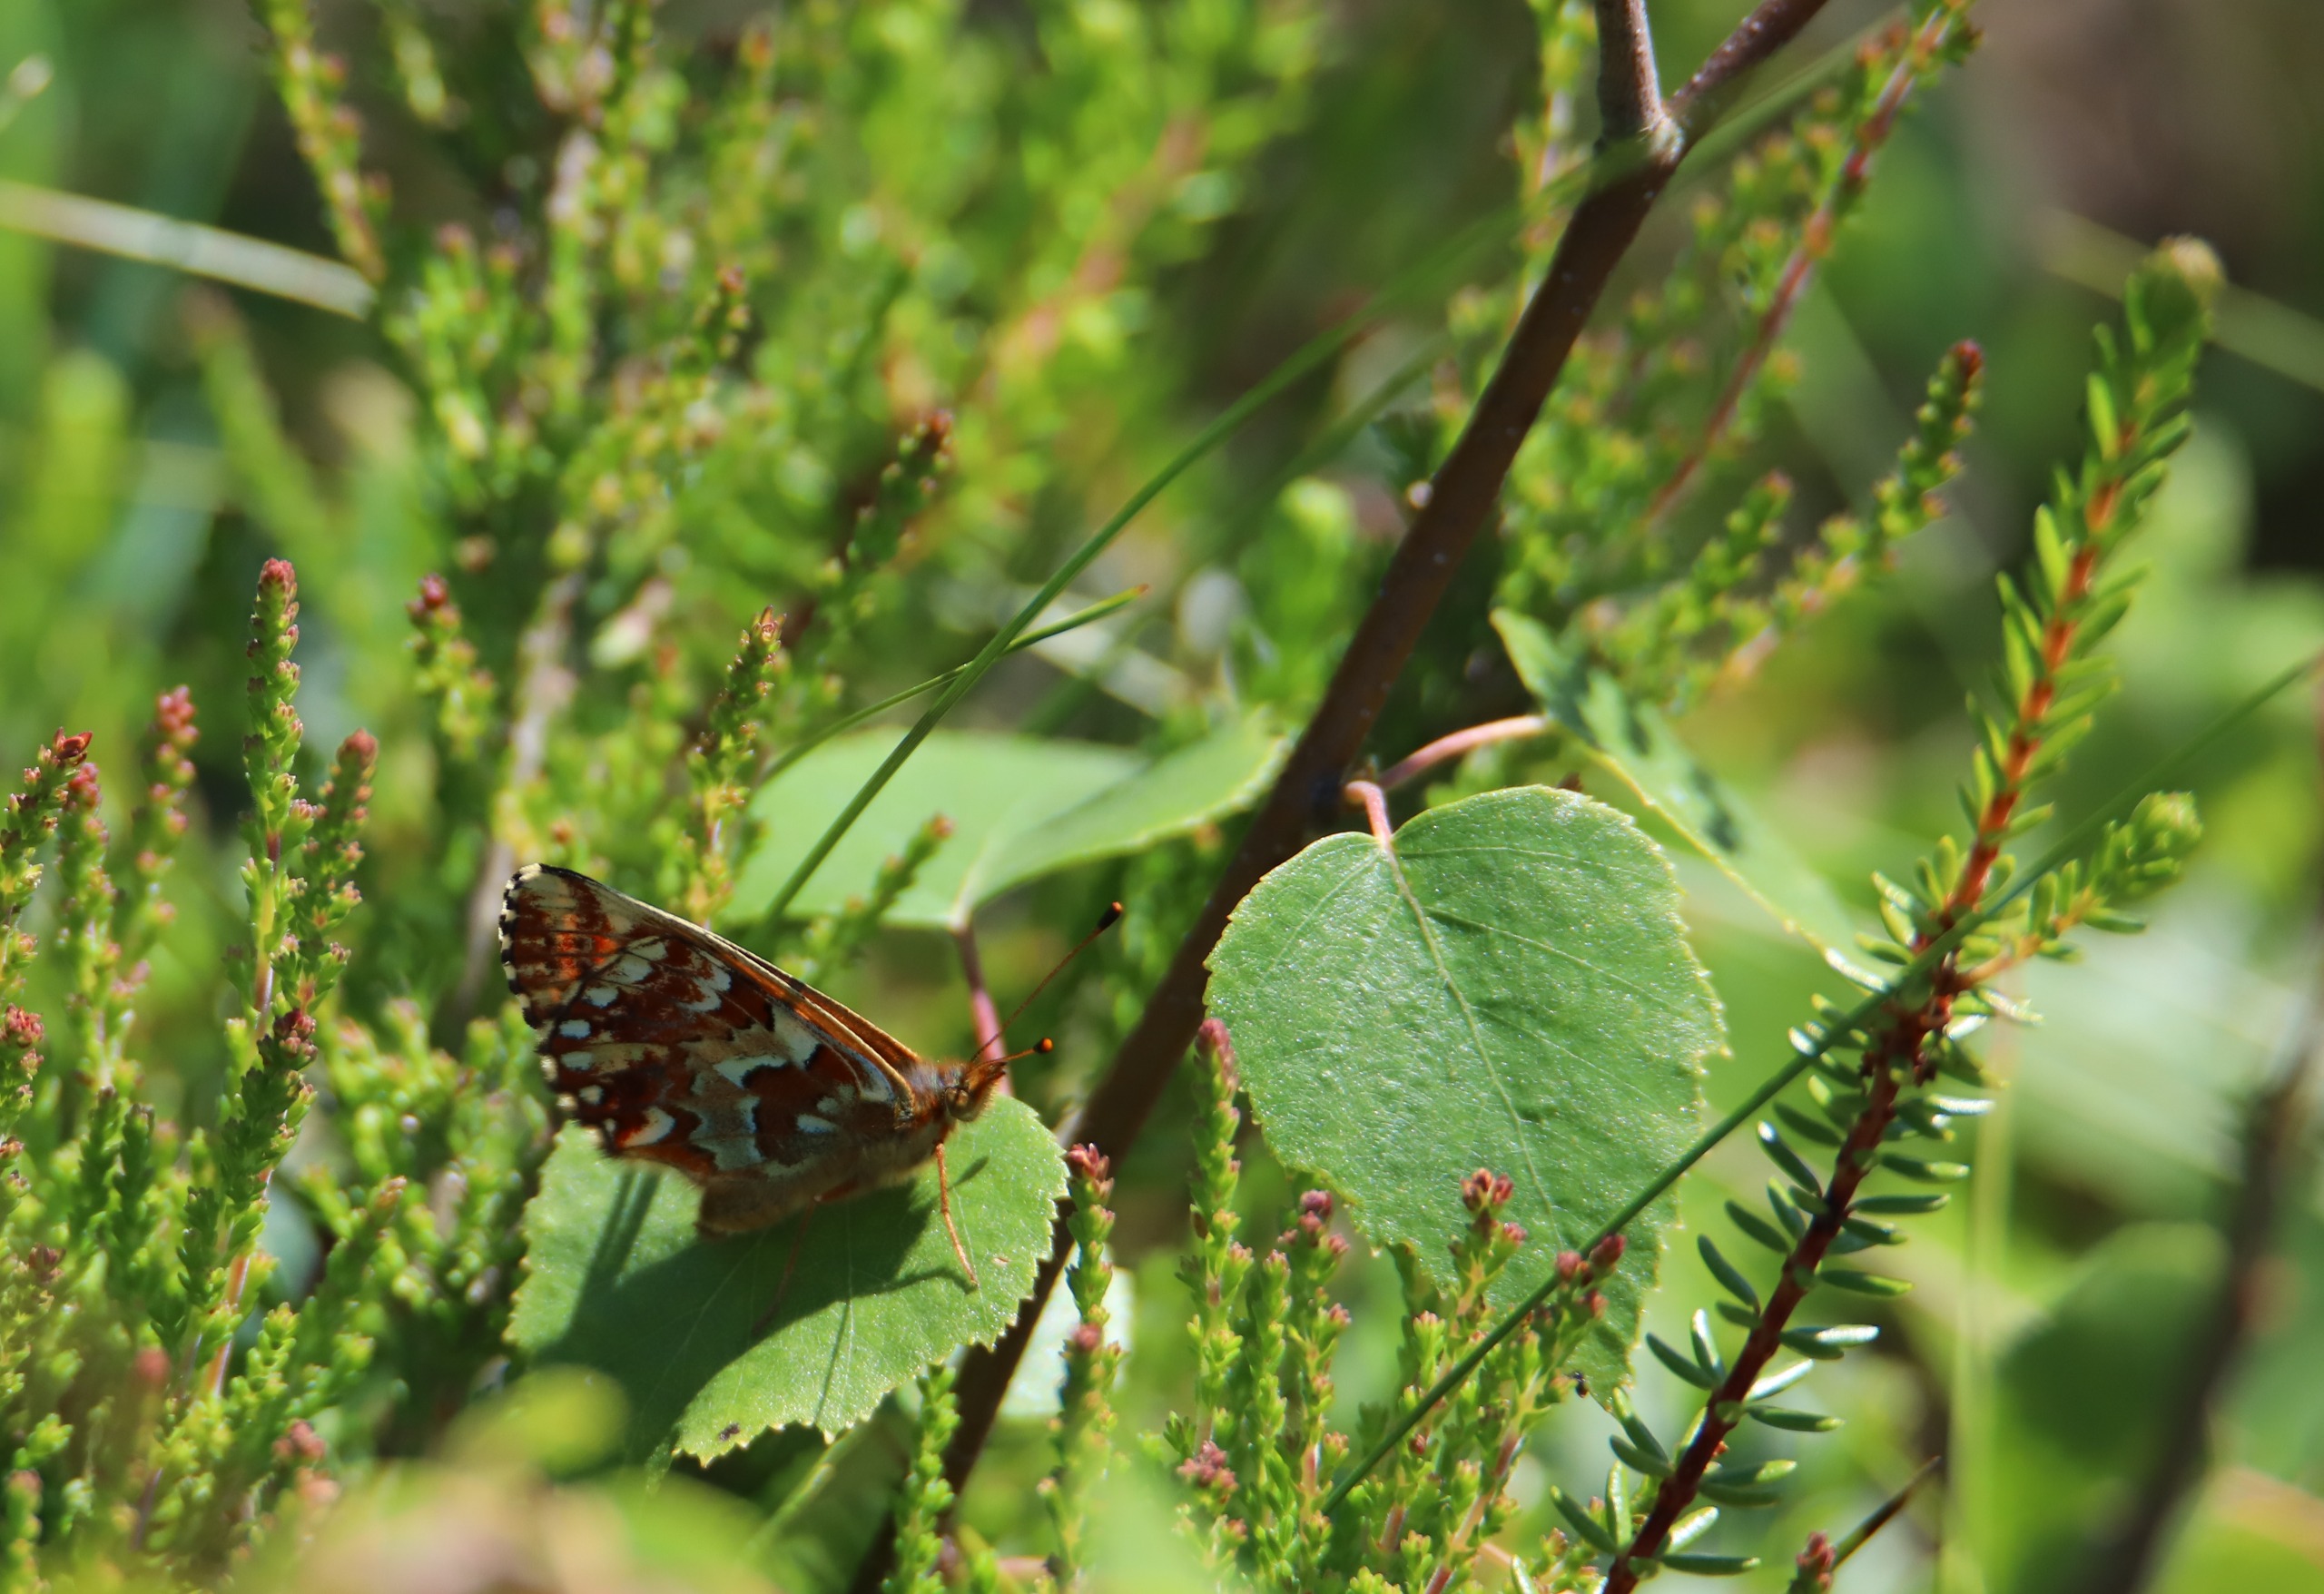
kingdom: Animalia
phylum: Arthropoda
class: Insecta
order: Lepidoptera
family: Nymphalidae
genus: Boloria
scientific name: Boloria aquilonaris
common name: Moseperlemorsommerfugl
